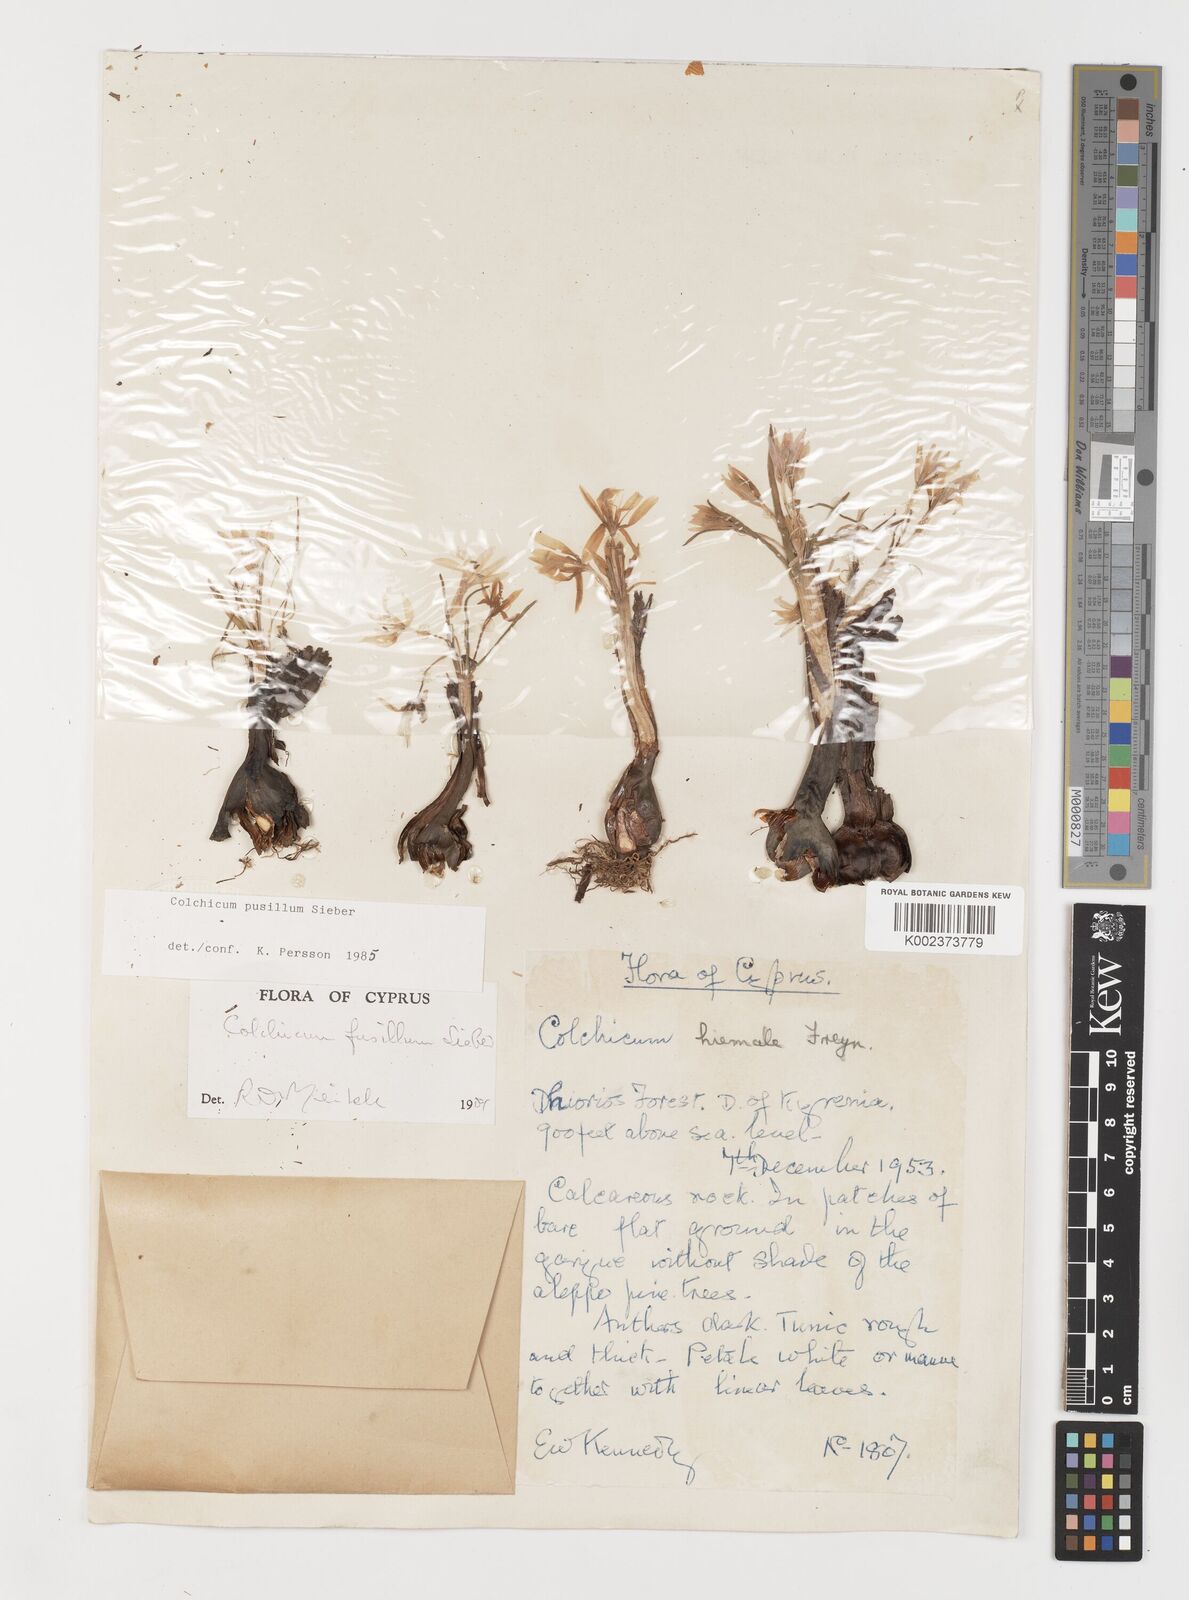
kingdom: Plantae
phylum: Tracheophyta
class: Liliopsida
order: Liliales
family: Colchicaceae
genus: Colchicum
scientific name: Colchicum pusillum
